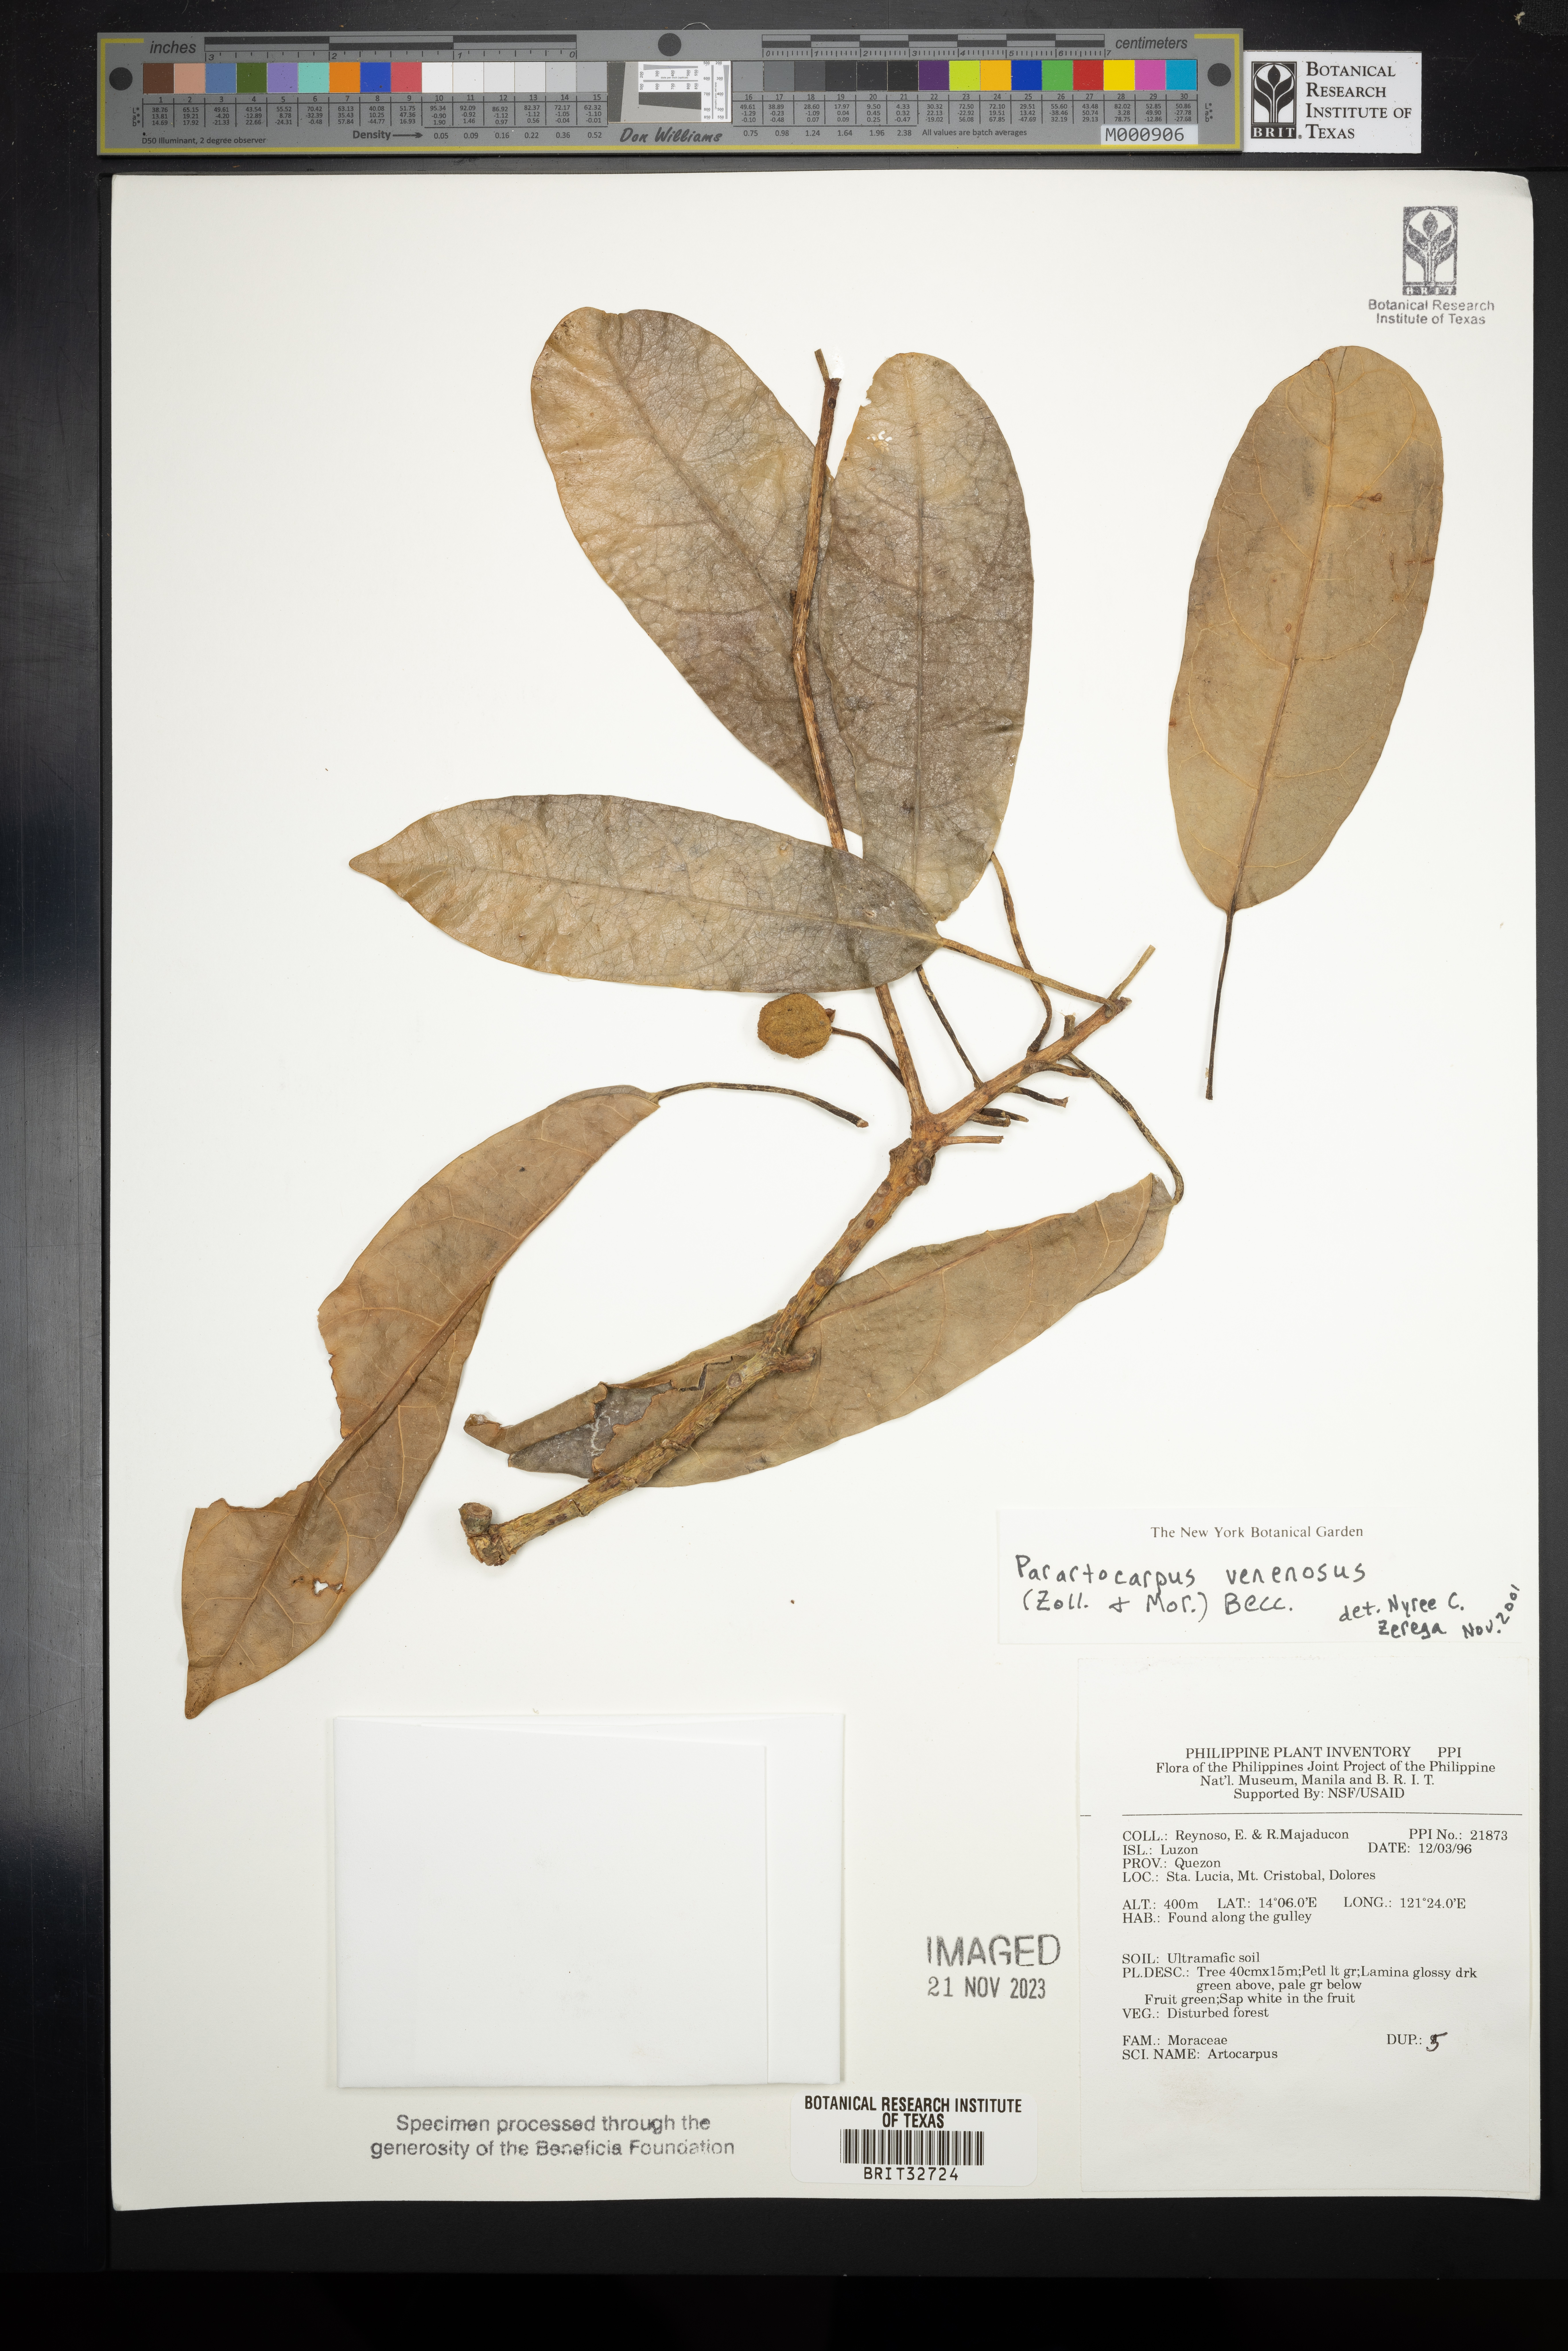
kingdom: Plantae
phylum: Tracheophyta
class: Magnoliopsida
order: Rosales
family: Moraceae
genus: Parartocarpus
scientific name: Parartocarpus venenosa
